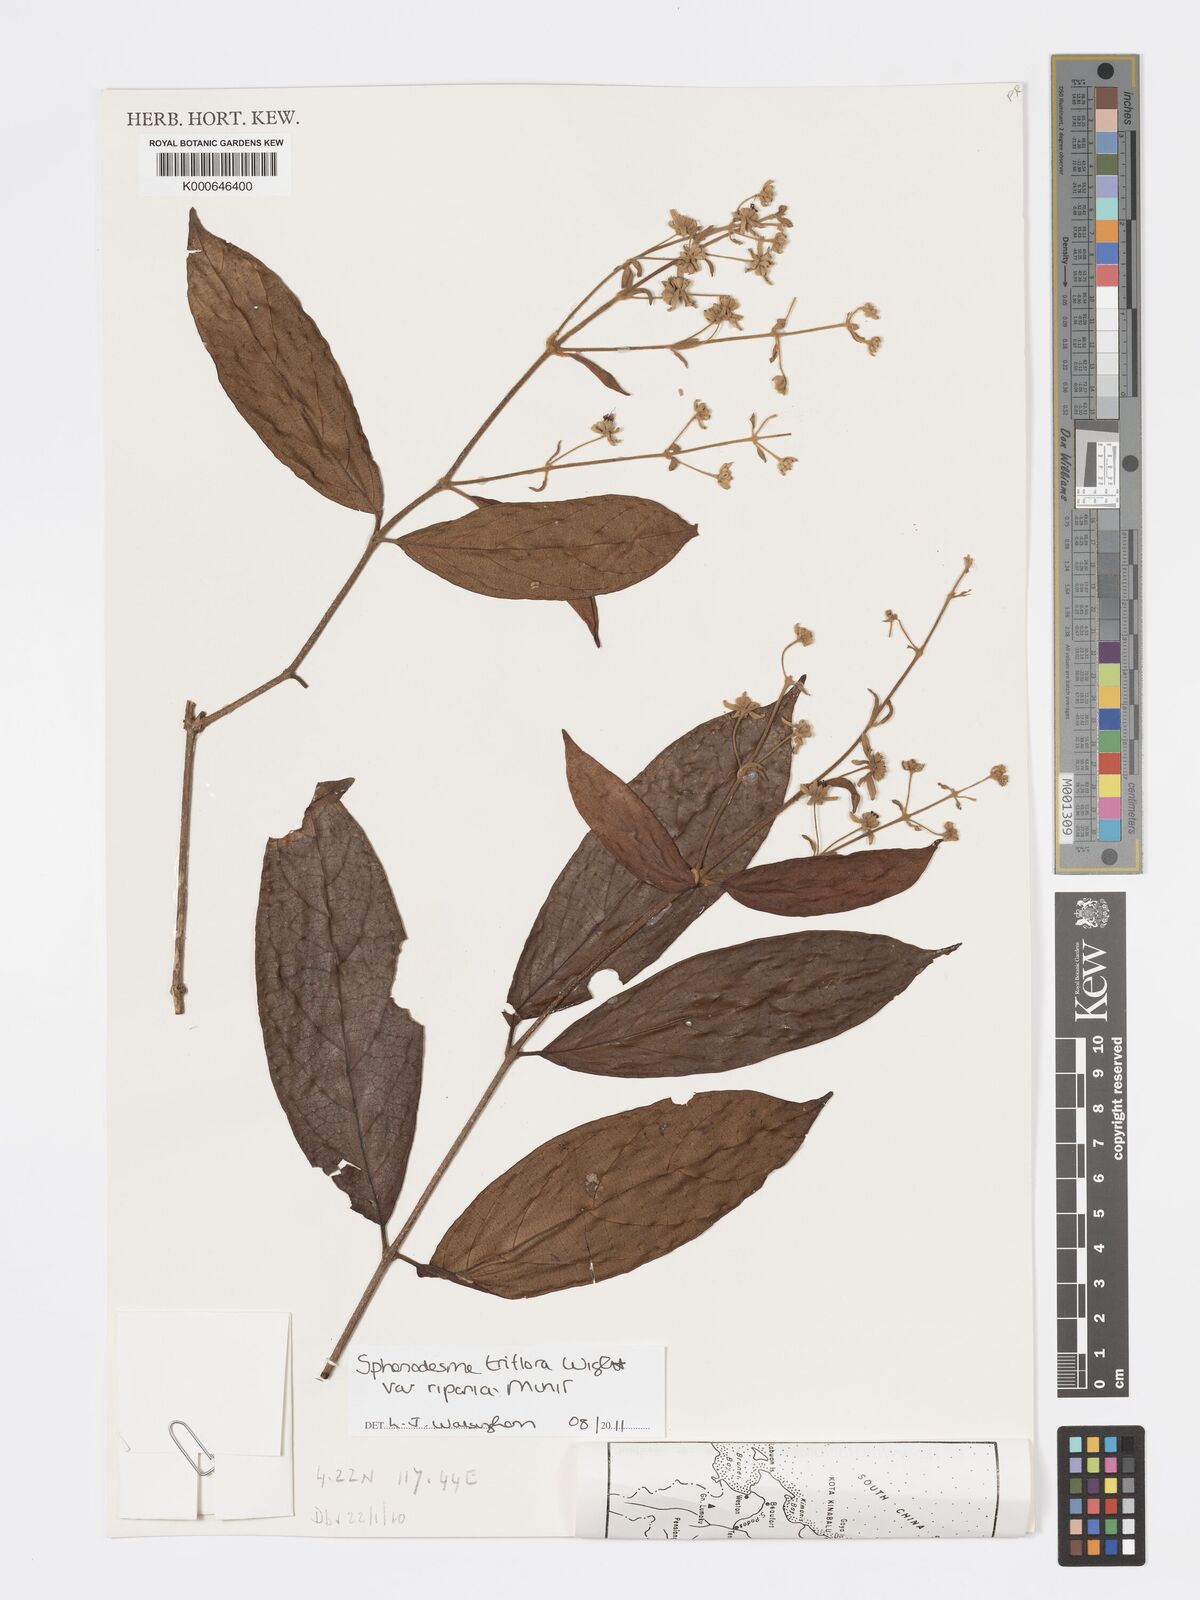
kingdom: Plantae
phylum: Tracheophyta
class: Magnoliopsida
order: Lamiales
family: Lamiaceae
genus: Sphenodesme
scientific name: Sphenodesme stellata
